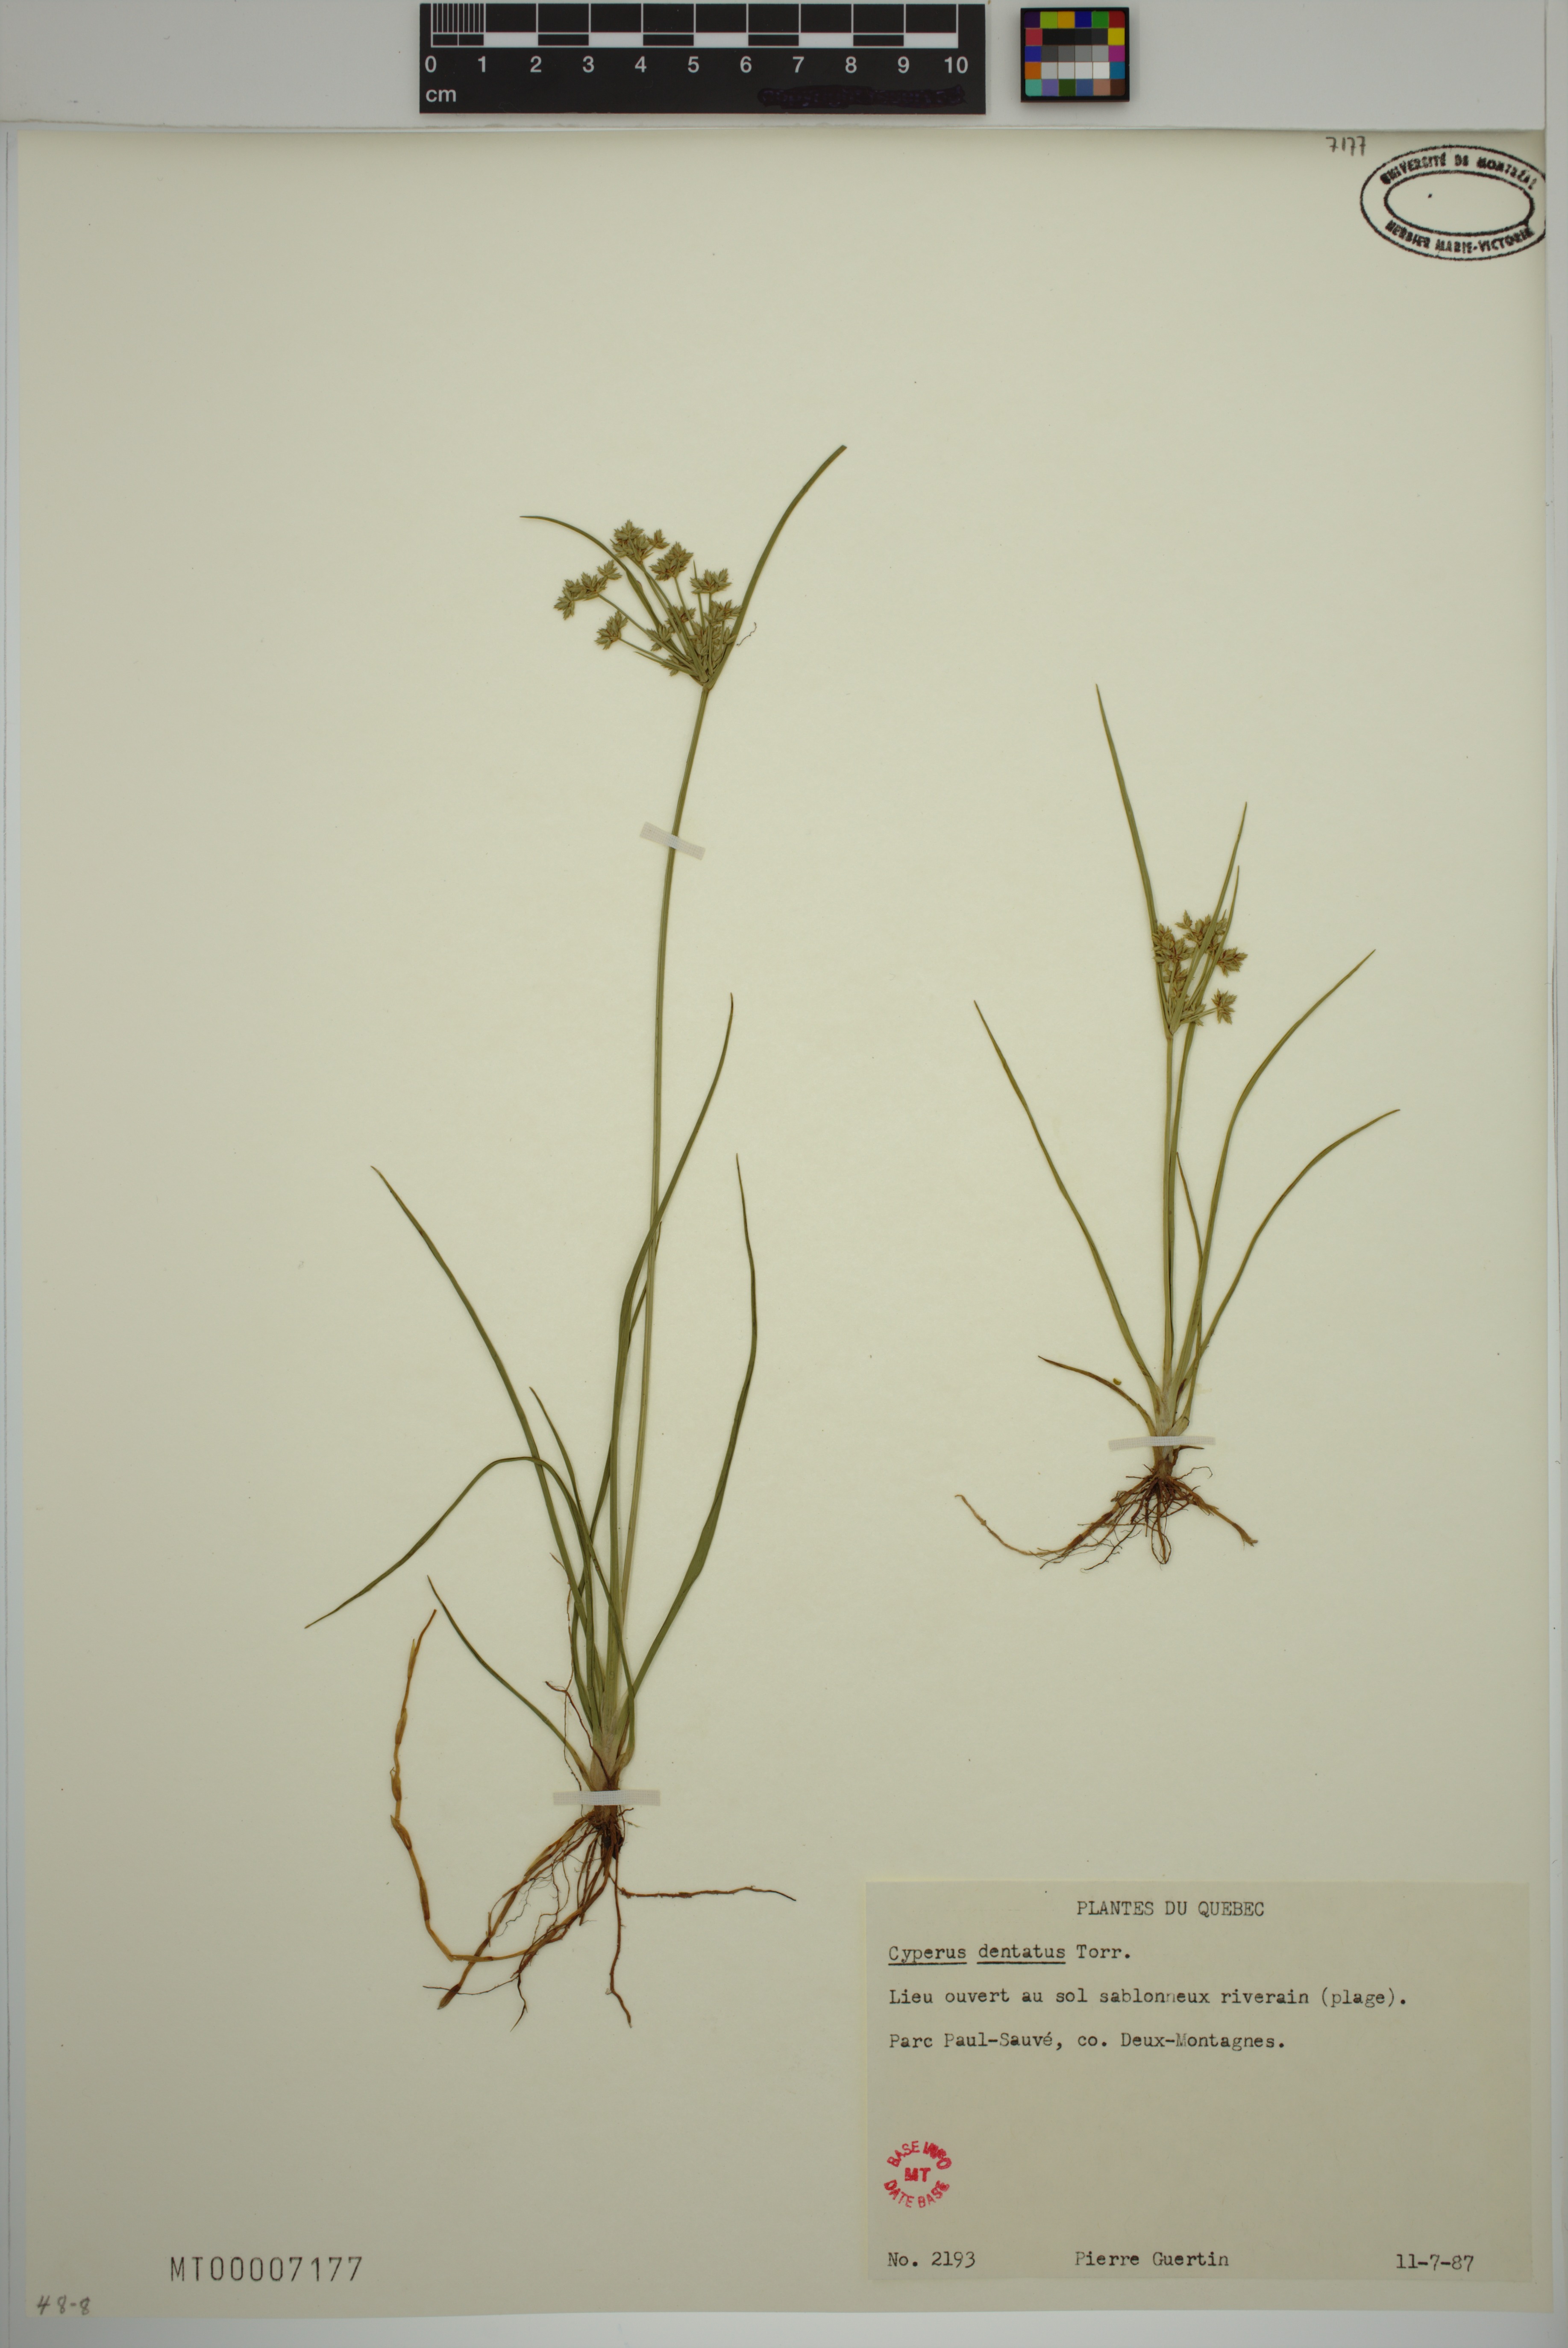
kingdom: Plantae
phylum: Tracheophyta
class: Liliopsida
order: Poales
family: Cyperaceae
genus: Cyperus
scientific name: Cyperus dentatus
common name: Dentate umbrella sedge
